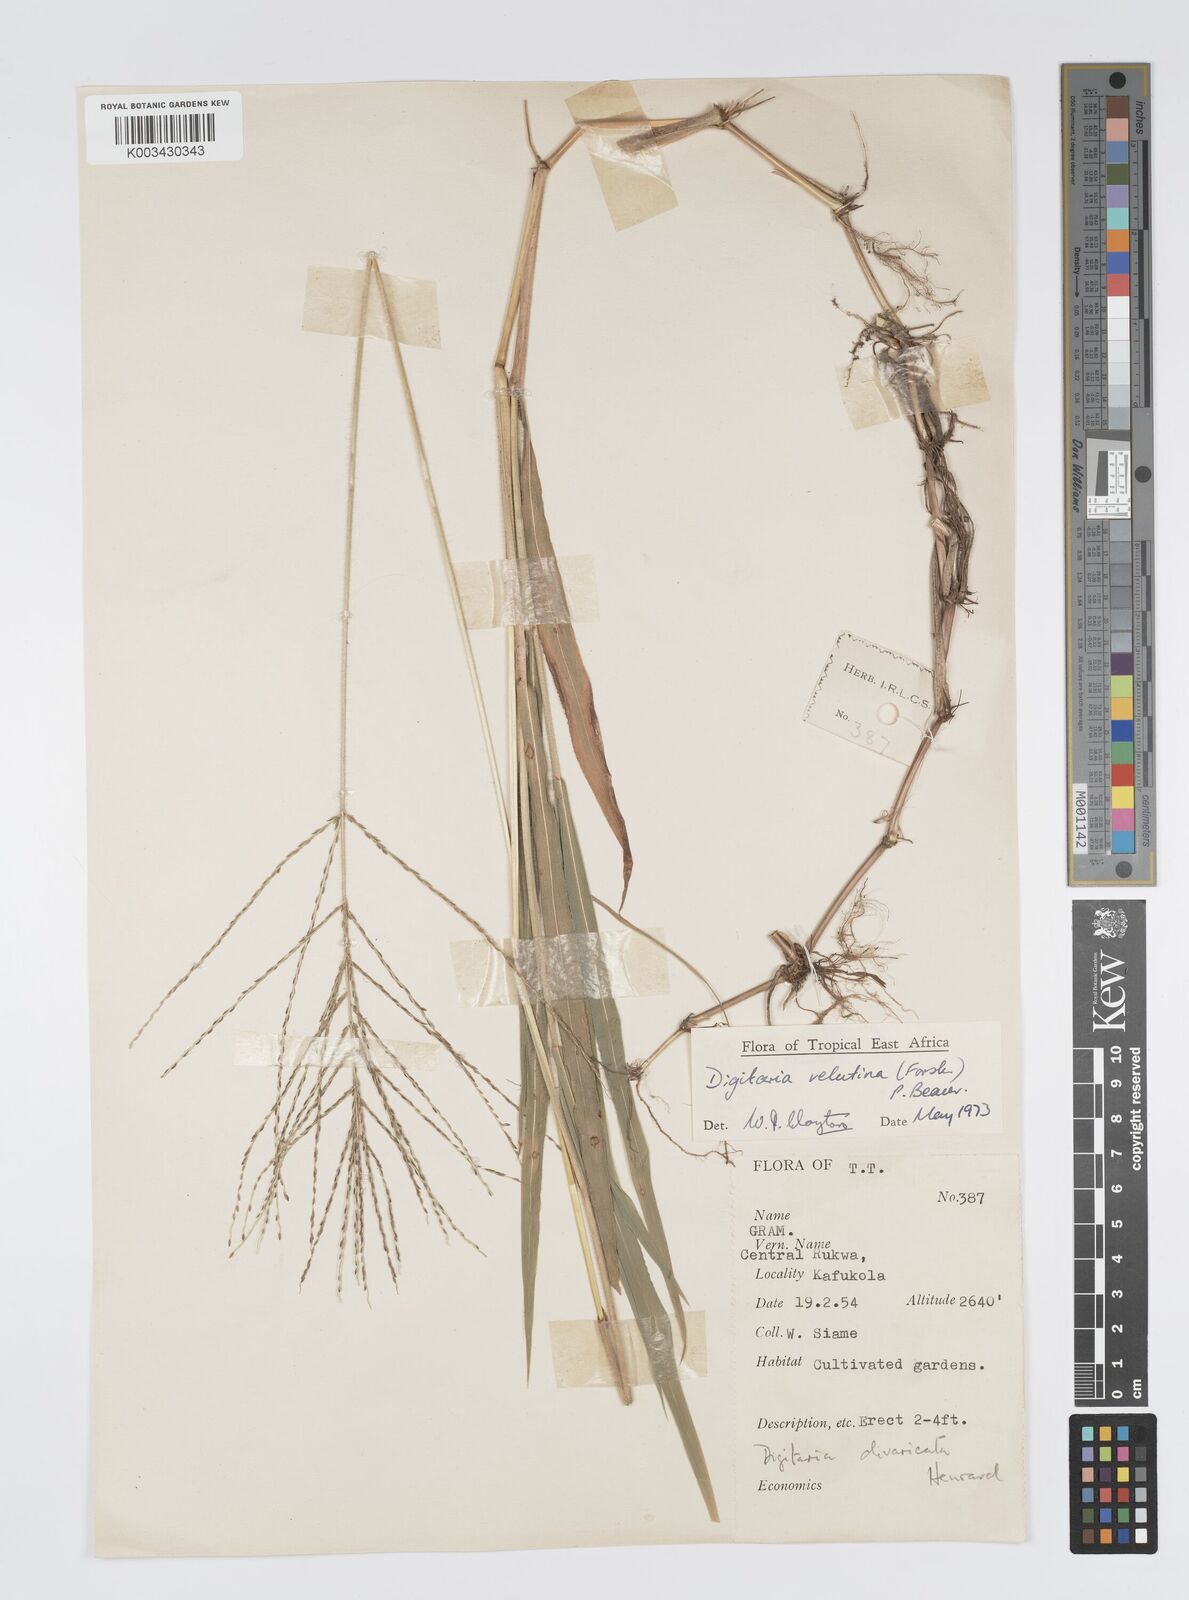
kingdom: Plantae
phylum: Tracheophyta
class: Liliopsida
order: Poales
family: Poaceae
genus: Digitaria
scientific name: Digitaria velutina
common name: Long-plume finger grass
